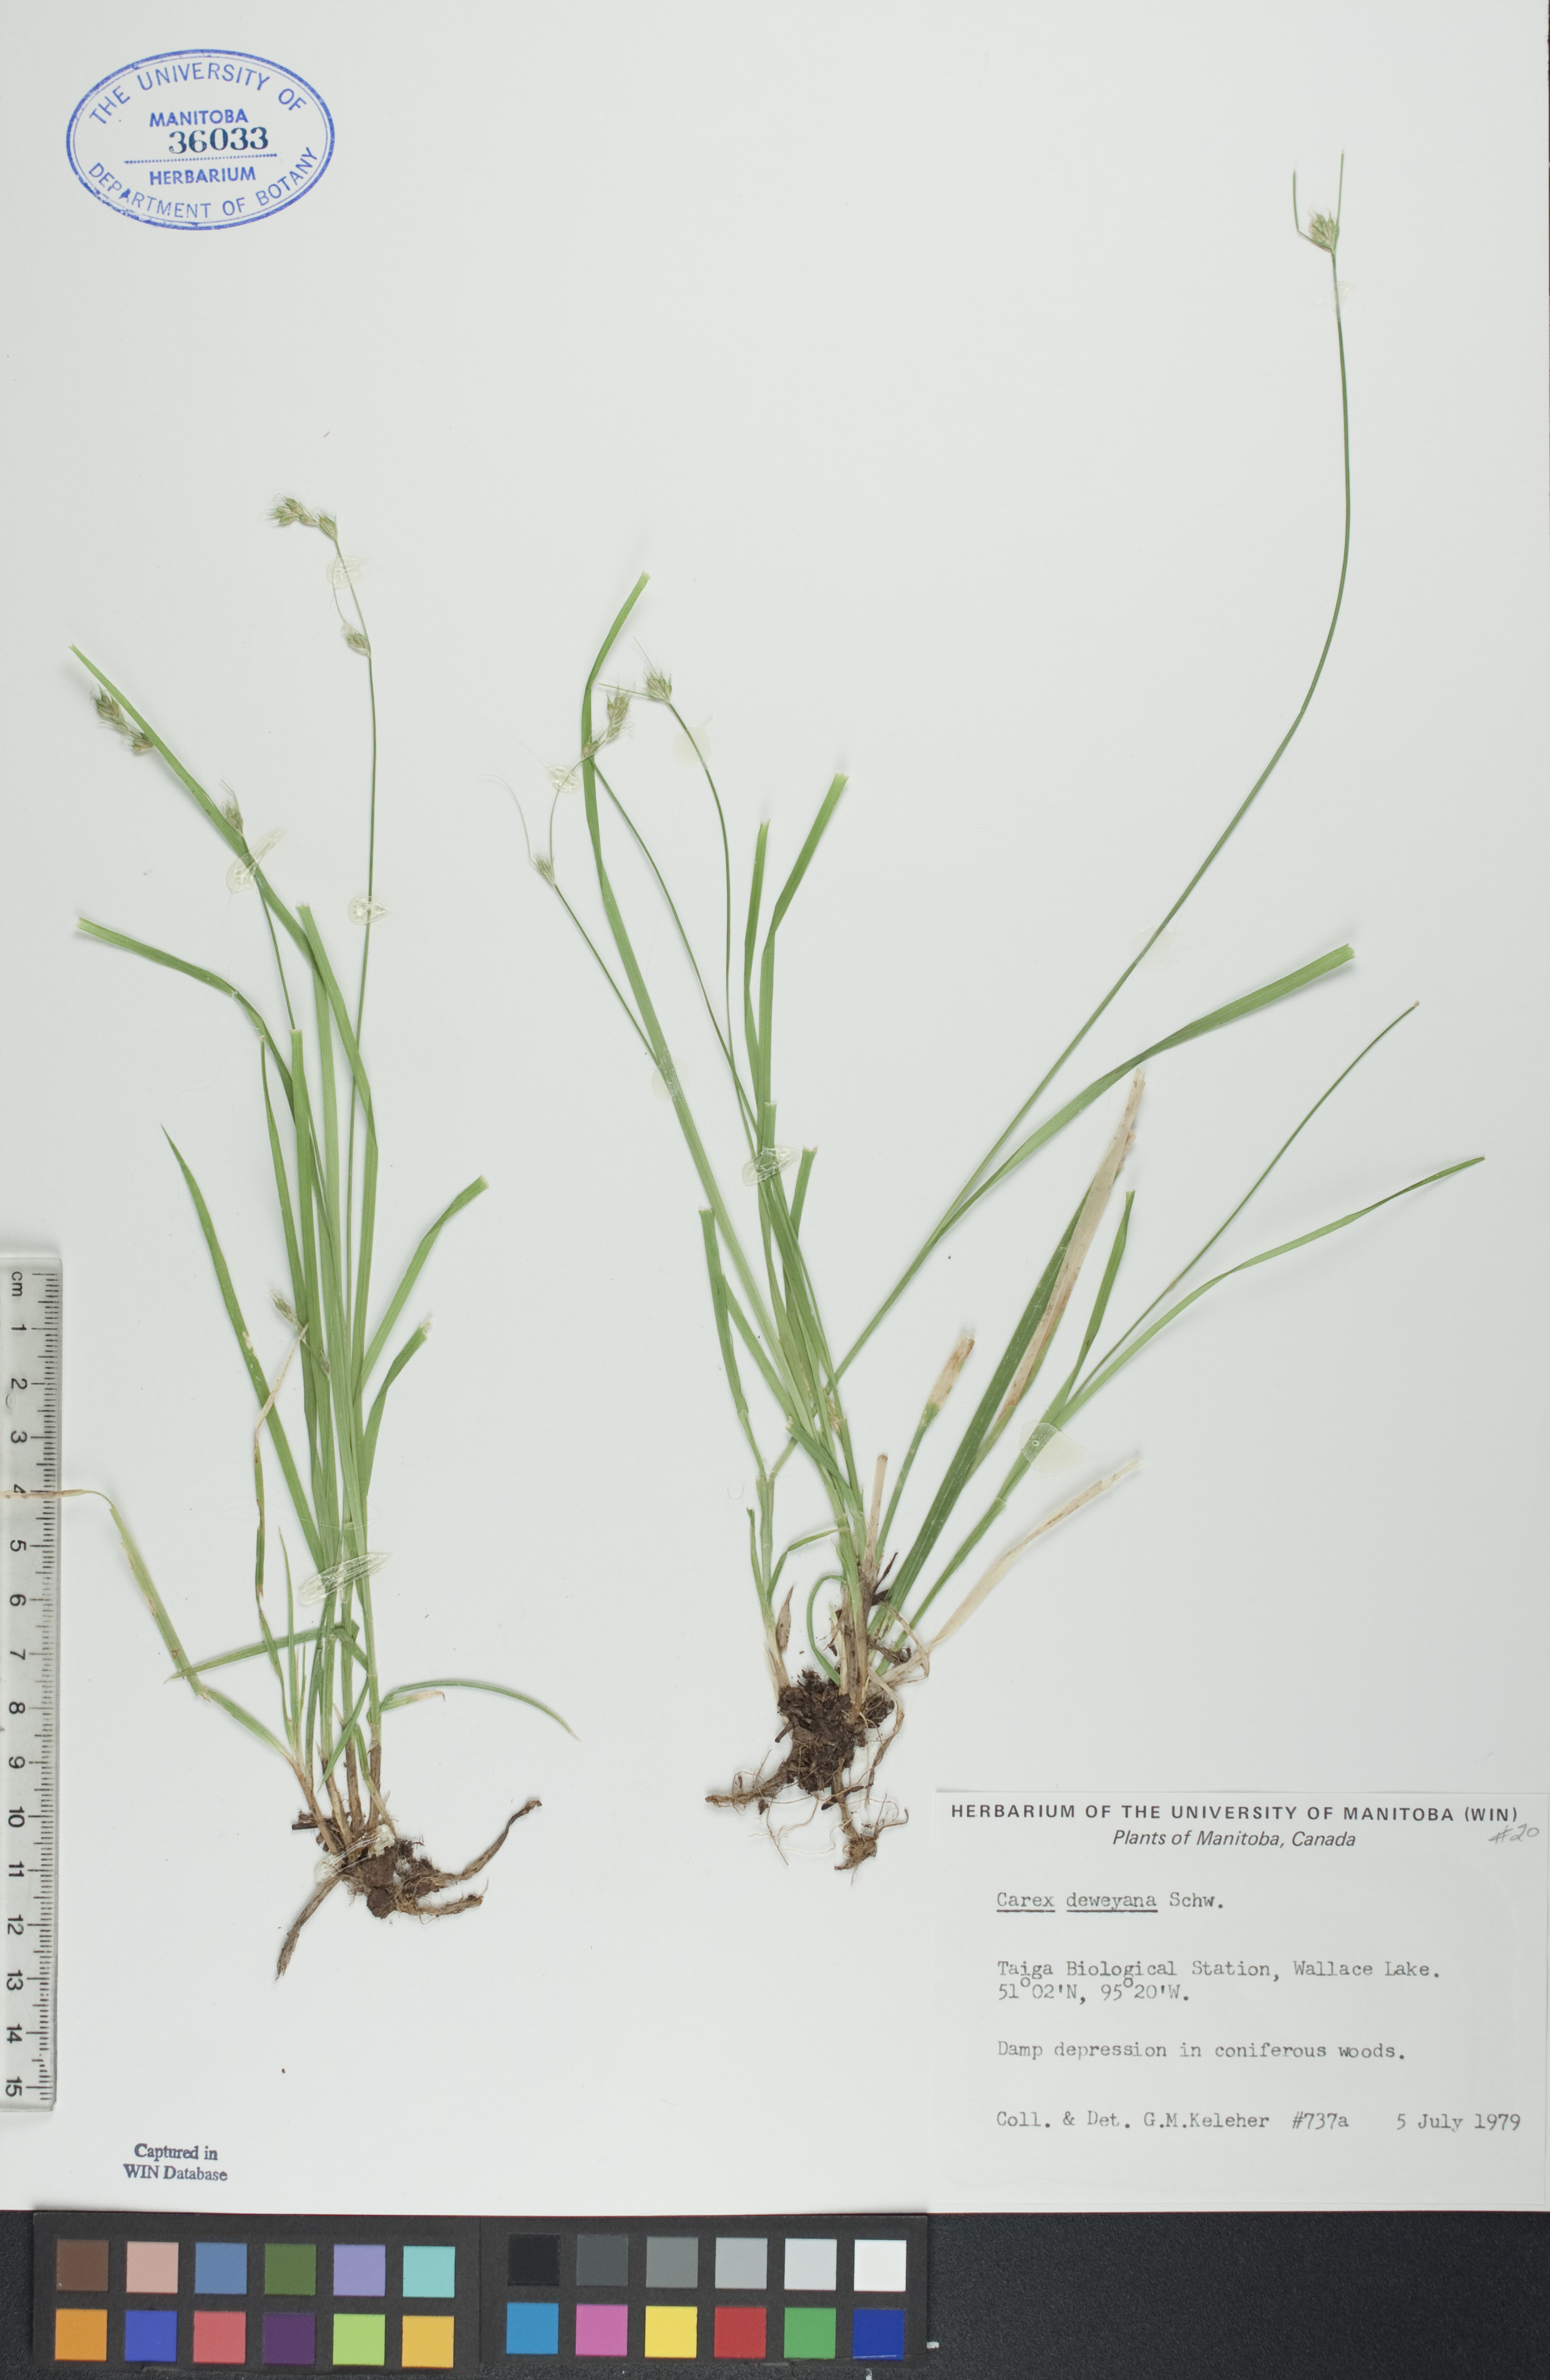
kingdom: Plantae
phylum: Tracheophyta
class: Liliopsida
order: Poales
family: Cyperaceae
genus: Carex
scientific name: Carex deweyana
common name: Dewey's sedge
